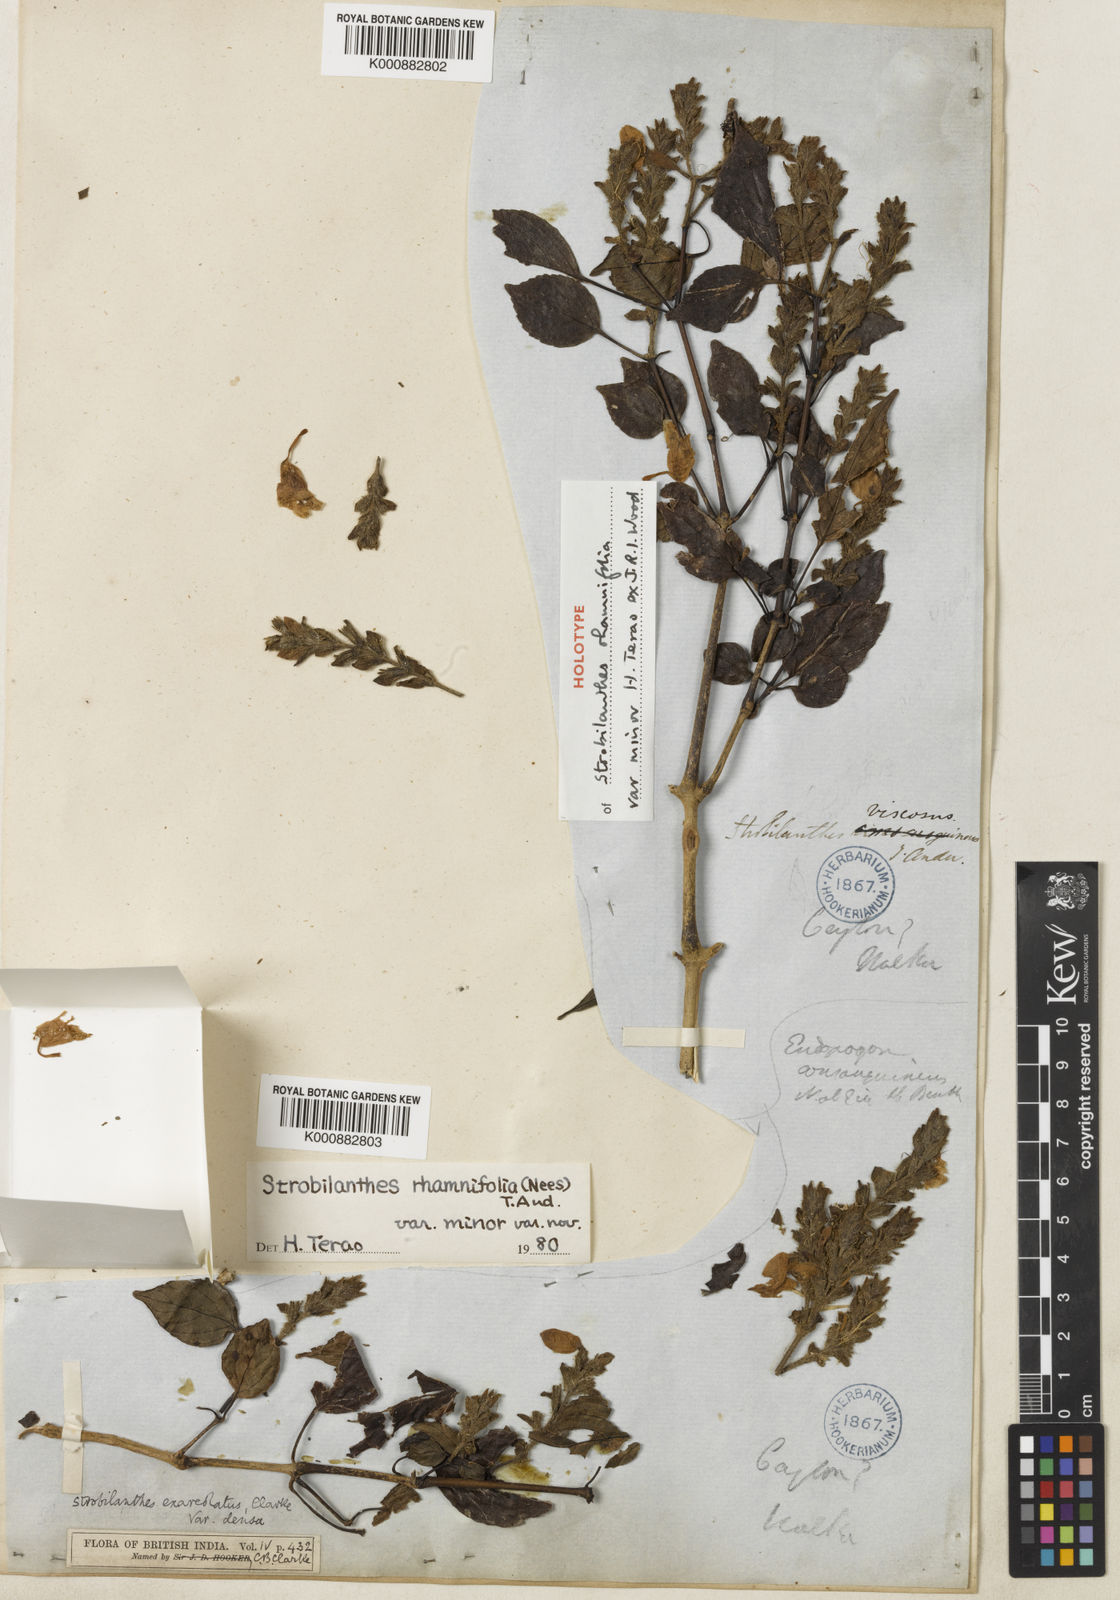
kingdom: Plantae
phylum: Tracheophyta
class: Magnoliopsida
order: Lamiales
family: Acanthaceae
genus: Strobilanthes
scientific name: Strobilanthes rhamnifolia
